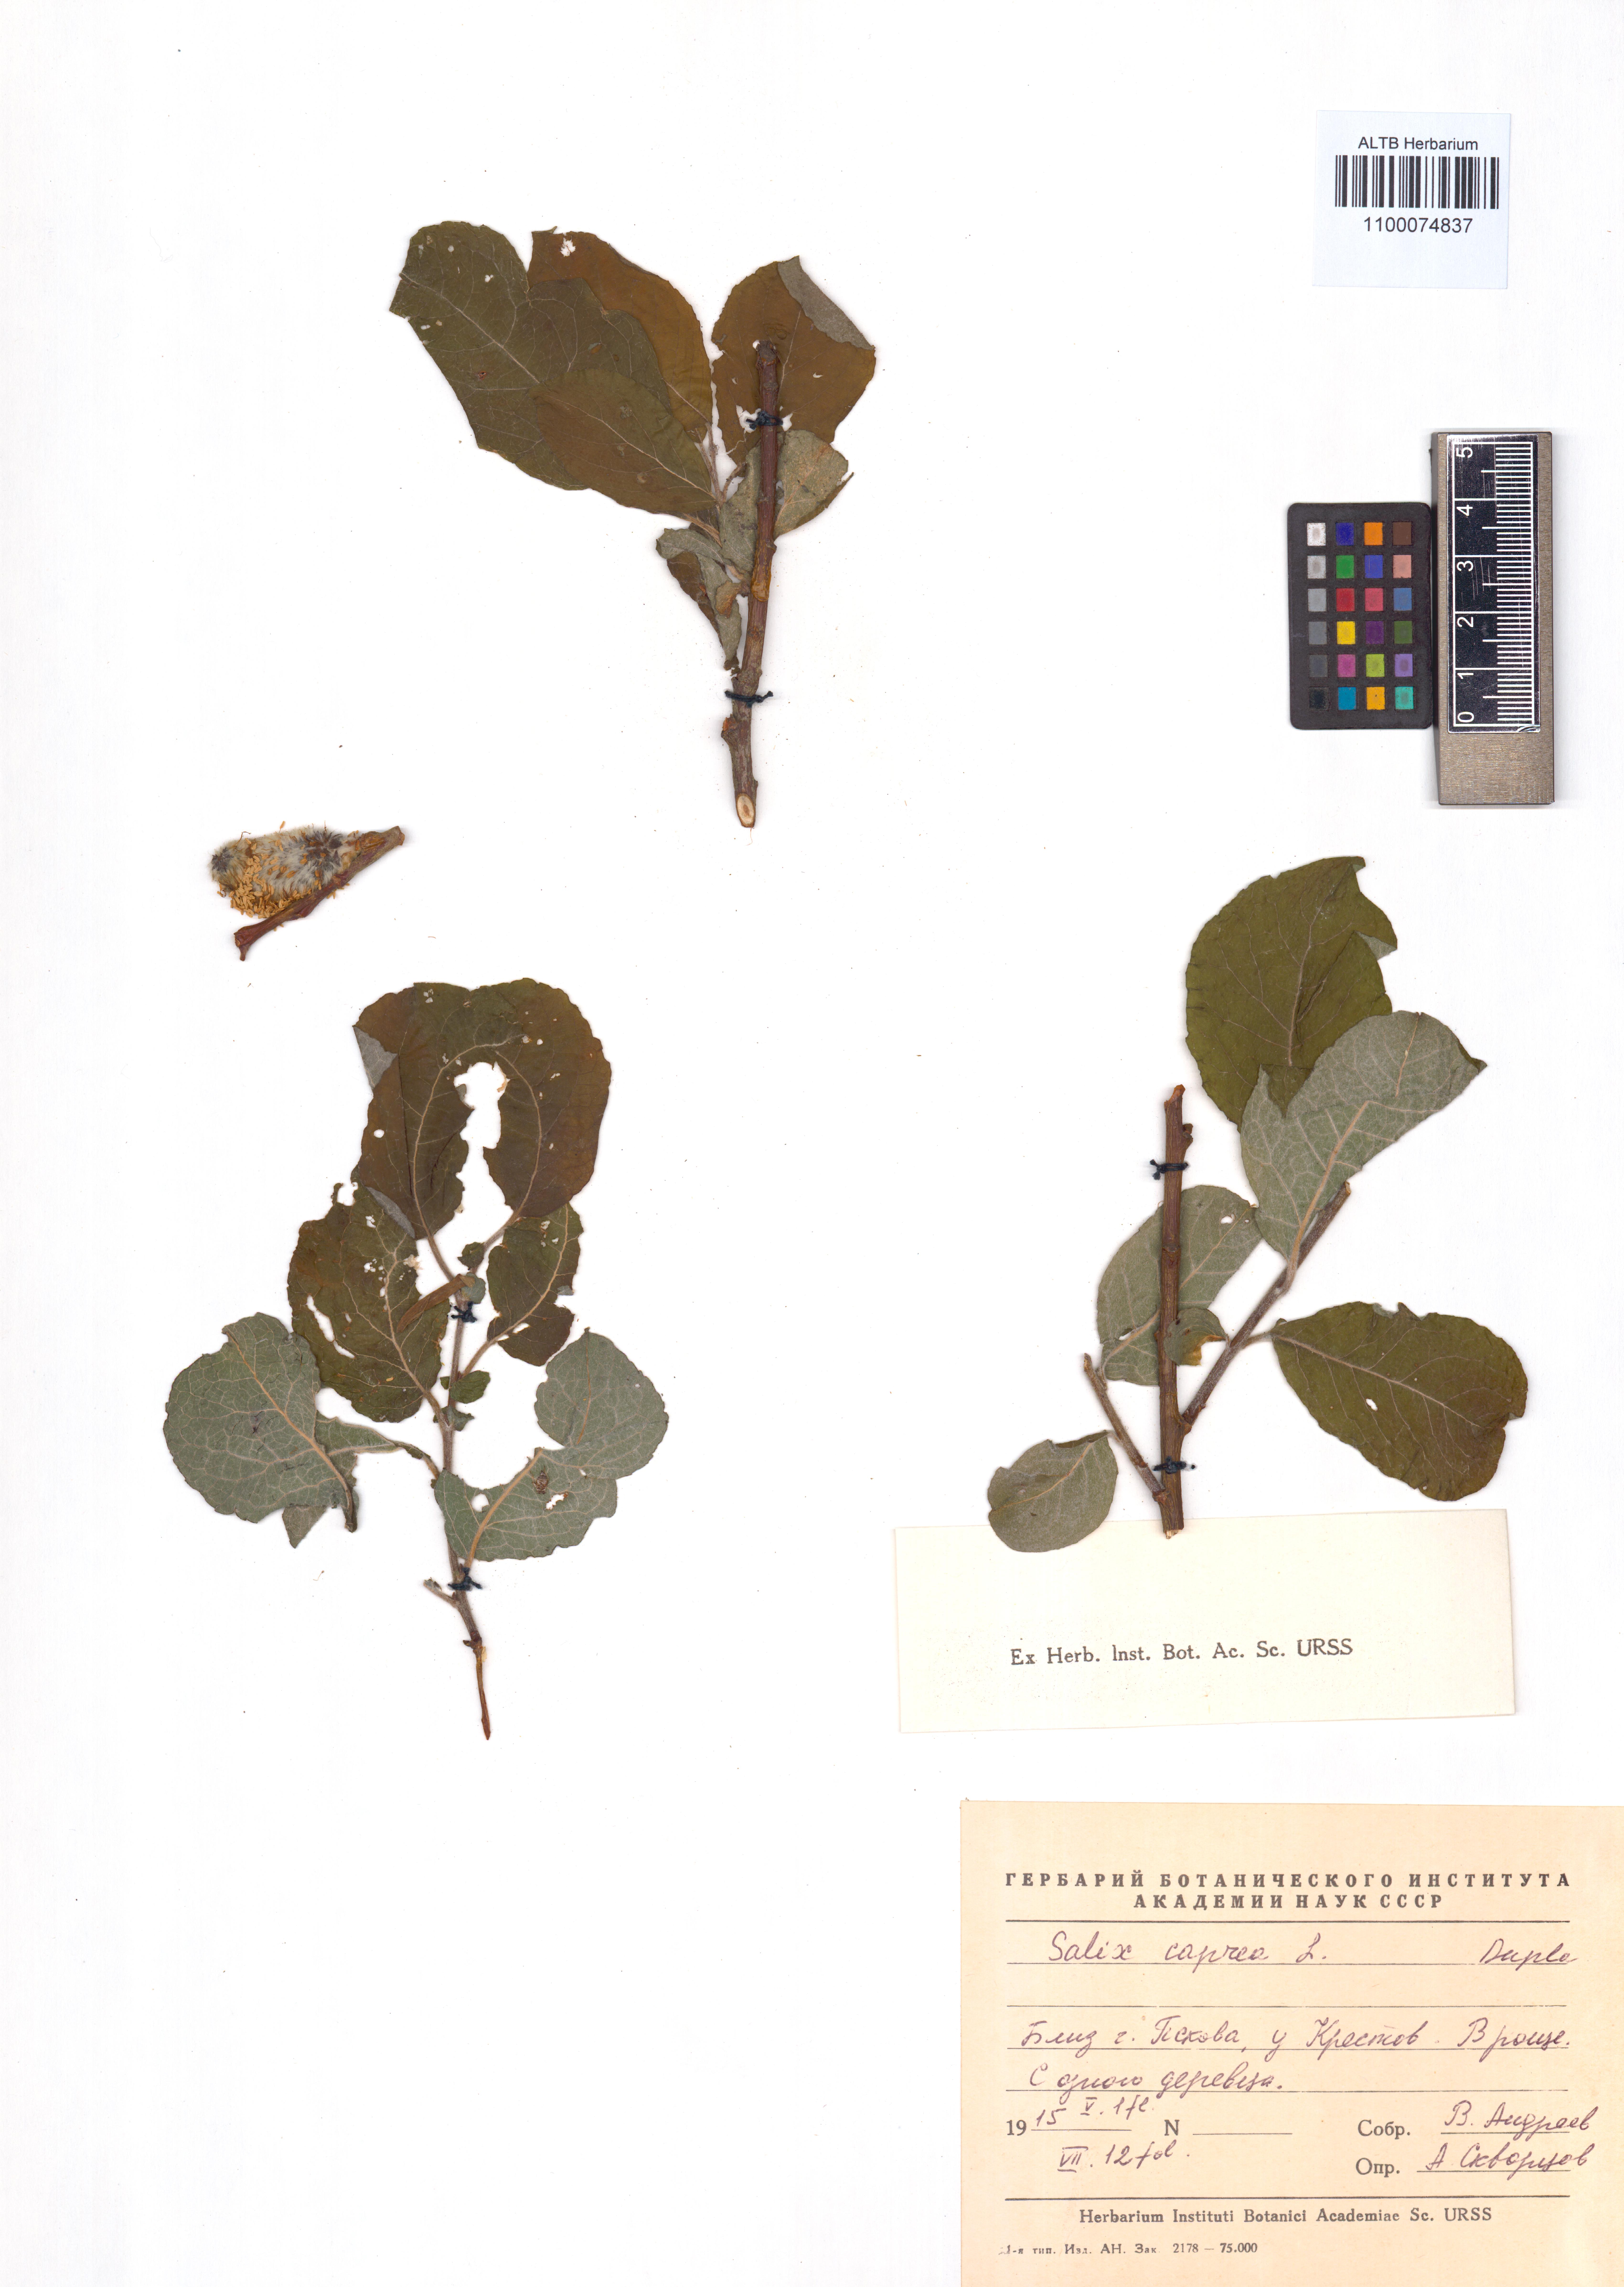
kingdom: Plantae
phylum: Tracheophyta
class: Magnoliopsida
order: Malpighiales
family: Salicaceae
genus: Salix
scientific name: Salix caprea
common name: Goat willow
